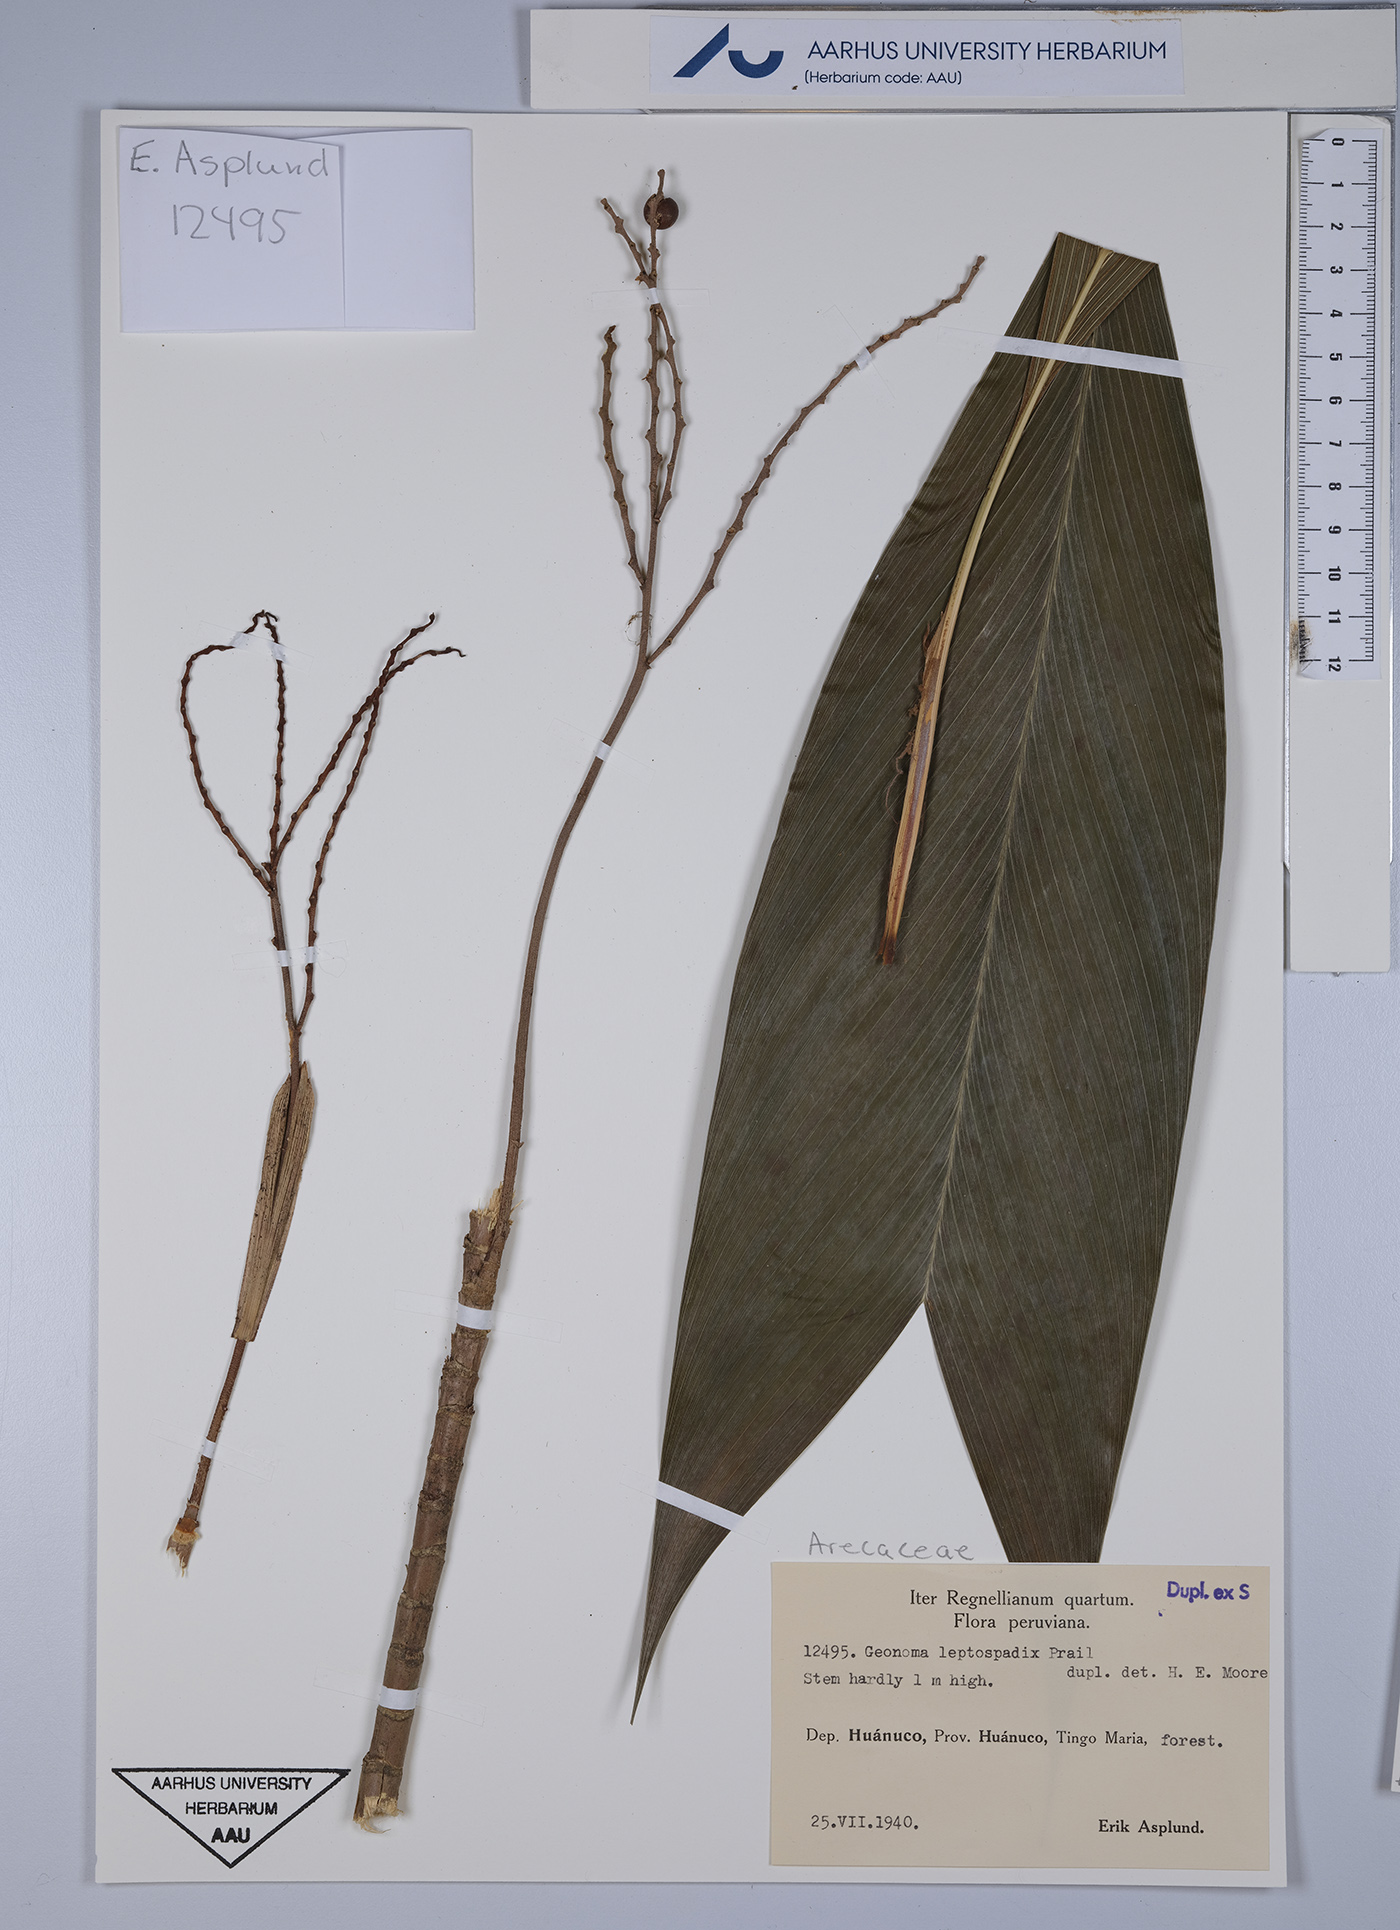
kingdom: Plantae
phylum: Tracheophyta
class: Liliopsida
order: Arecales
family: Arecaceae
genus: Geonoma
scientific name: Geonoma leptospadix
